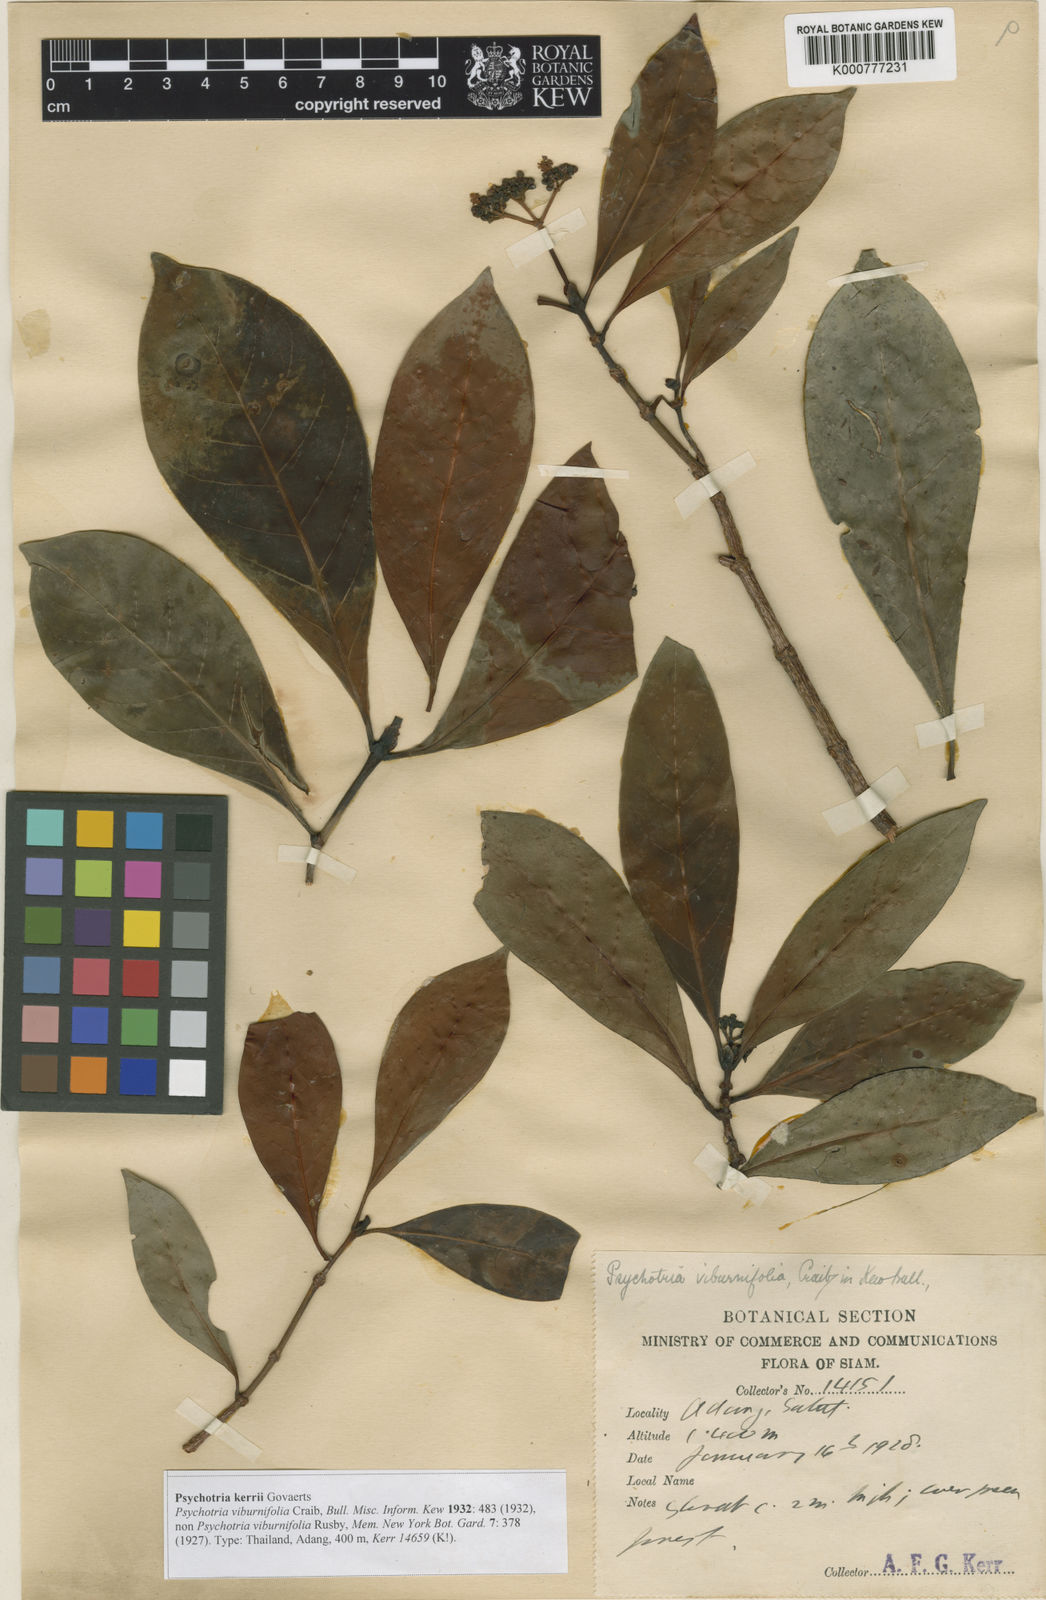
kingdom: Plantae
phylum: Tracheophyta
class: Magnoliopsida
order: Gentianales
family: Rubiaceae
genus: Psychotria
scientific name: Psychotria malayana
